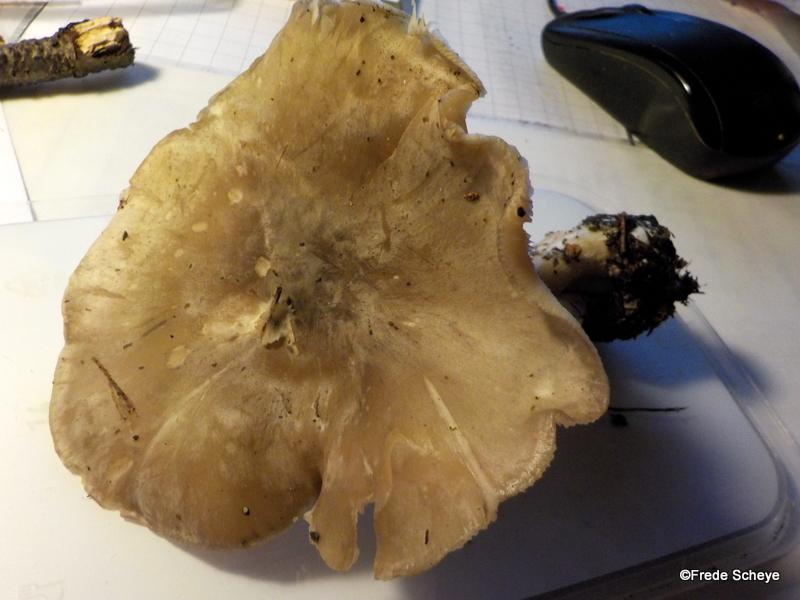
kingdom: Fungi
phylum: Basidiomycota
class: Agaricomycetes
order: Agaricales
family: Tricholomataceae
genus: Clitocybe
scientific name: Clitocybe nebularis
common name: tåge-tragthat
